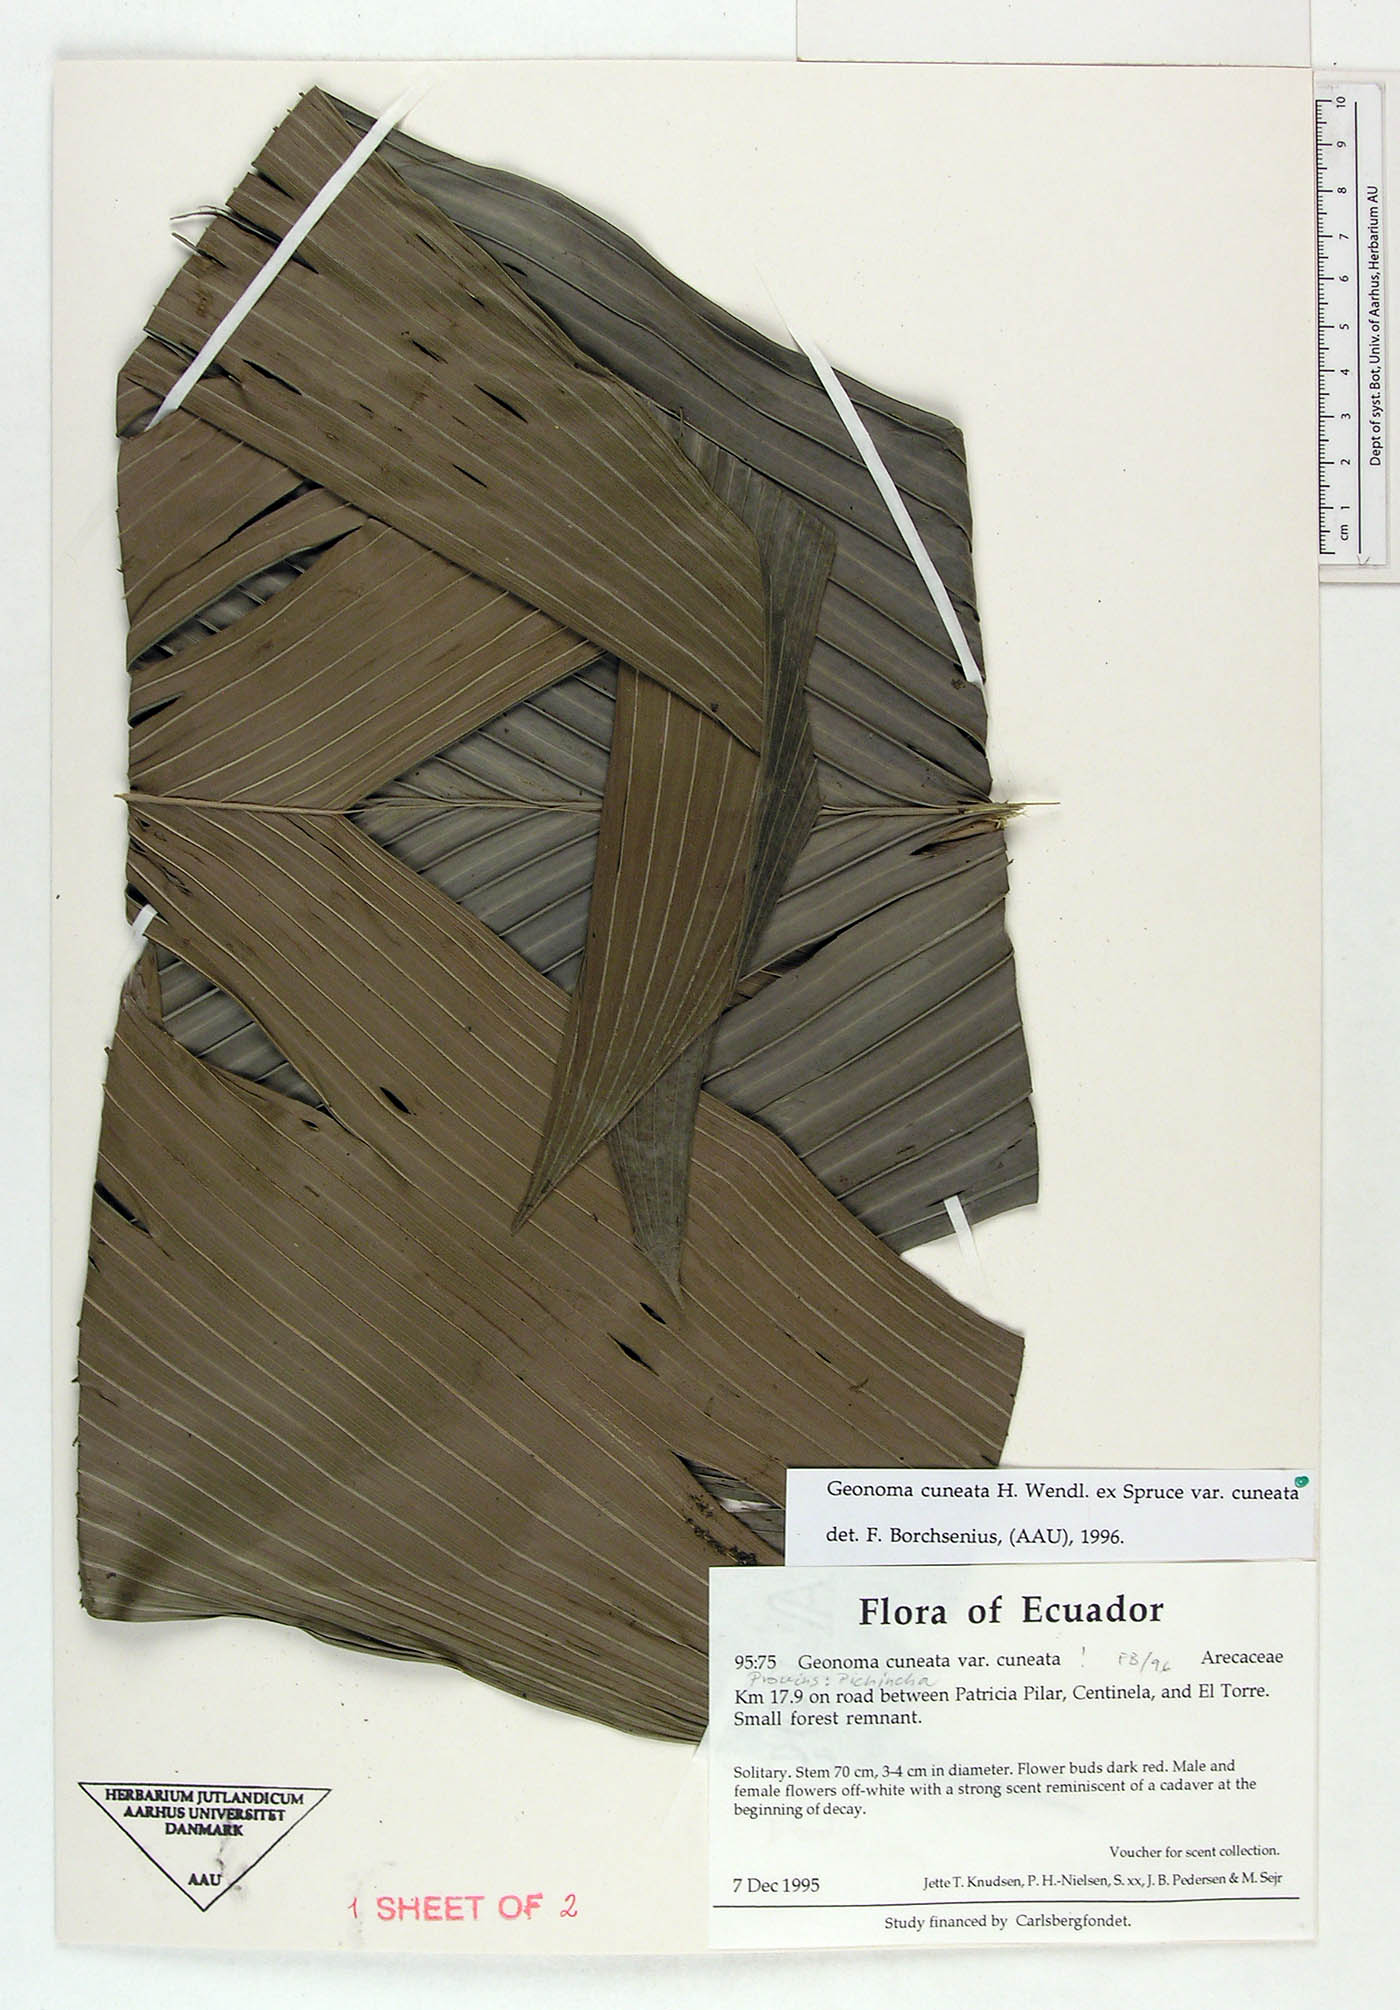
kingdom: Plantae
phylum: Tracheophyta
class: Liliopsida
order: Arecales
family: Arecaceae
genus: Geonoma
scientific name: Geonoma cuneata
